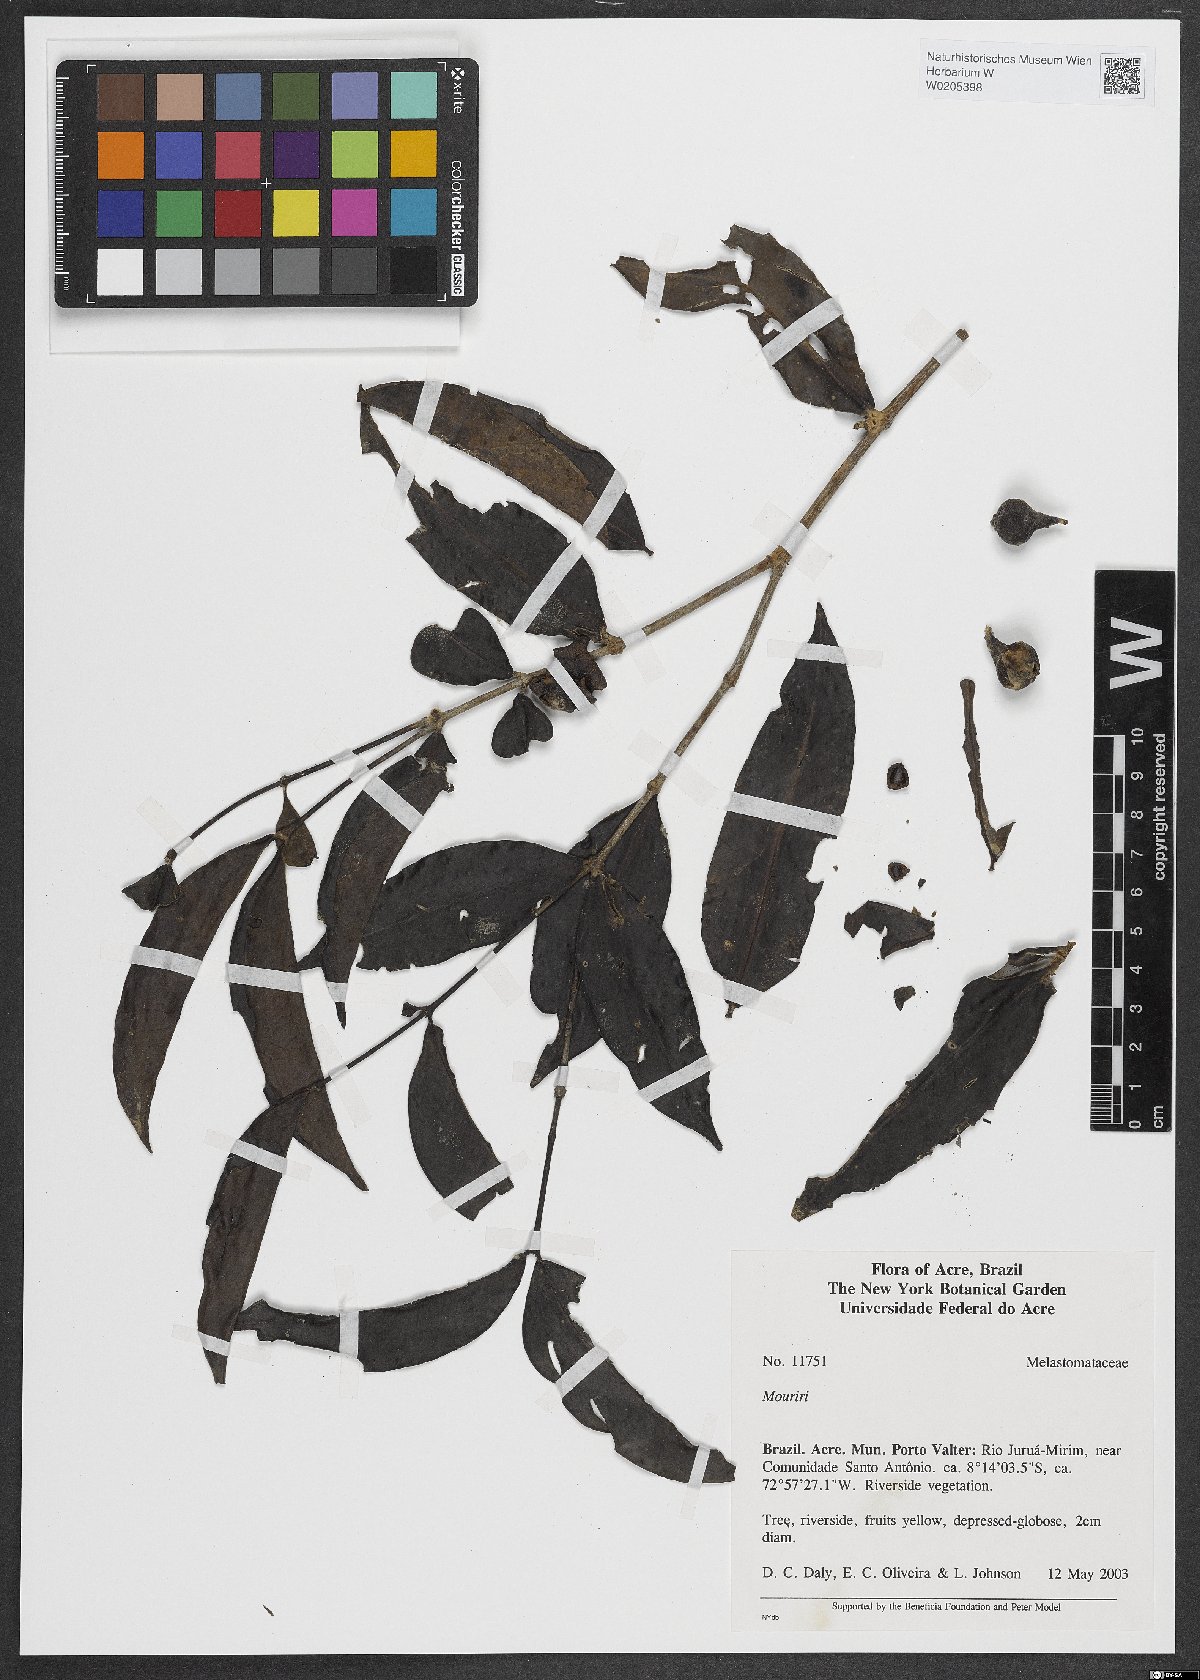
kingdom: Plantae
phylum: Tracheophyta
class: Magnoliopsida
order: Myrtales
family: Melastomataceae
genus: Mouriri
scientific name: Mouriri
